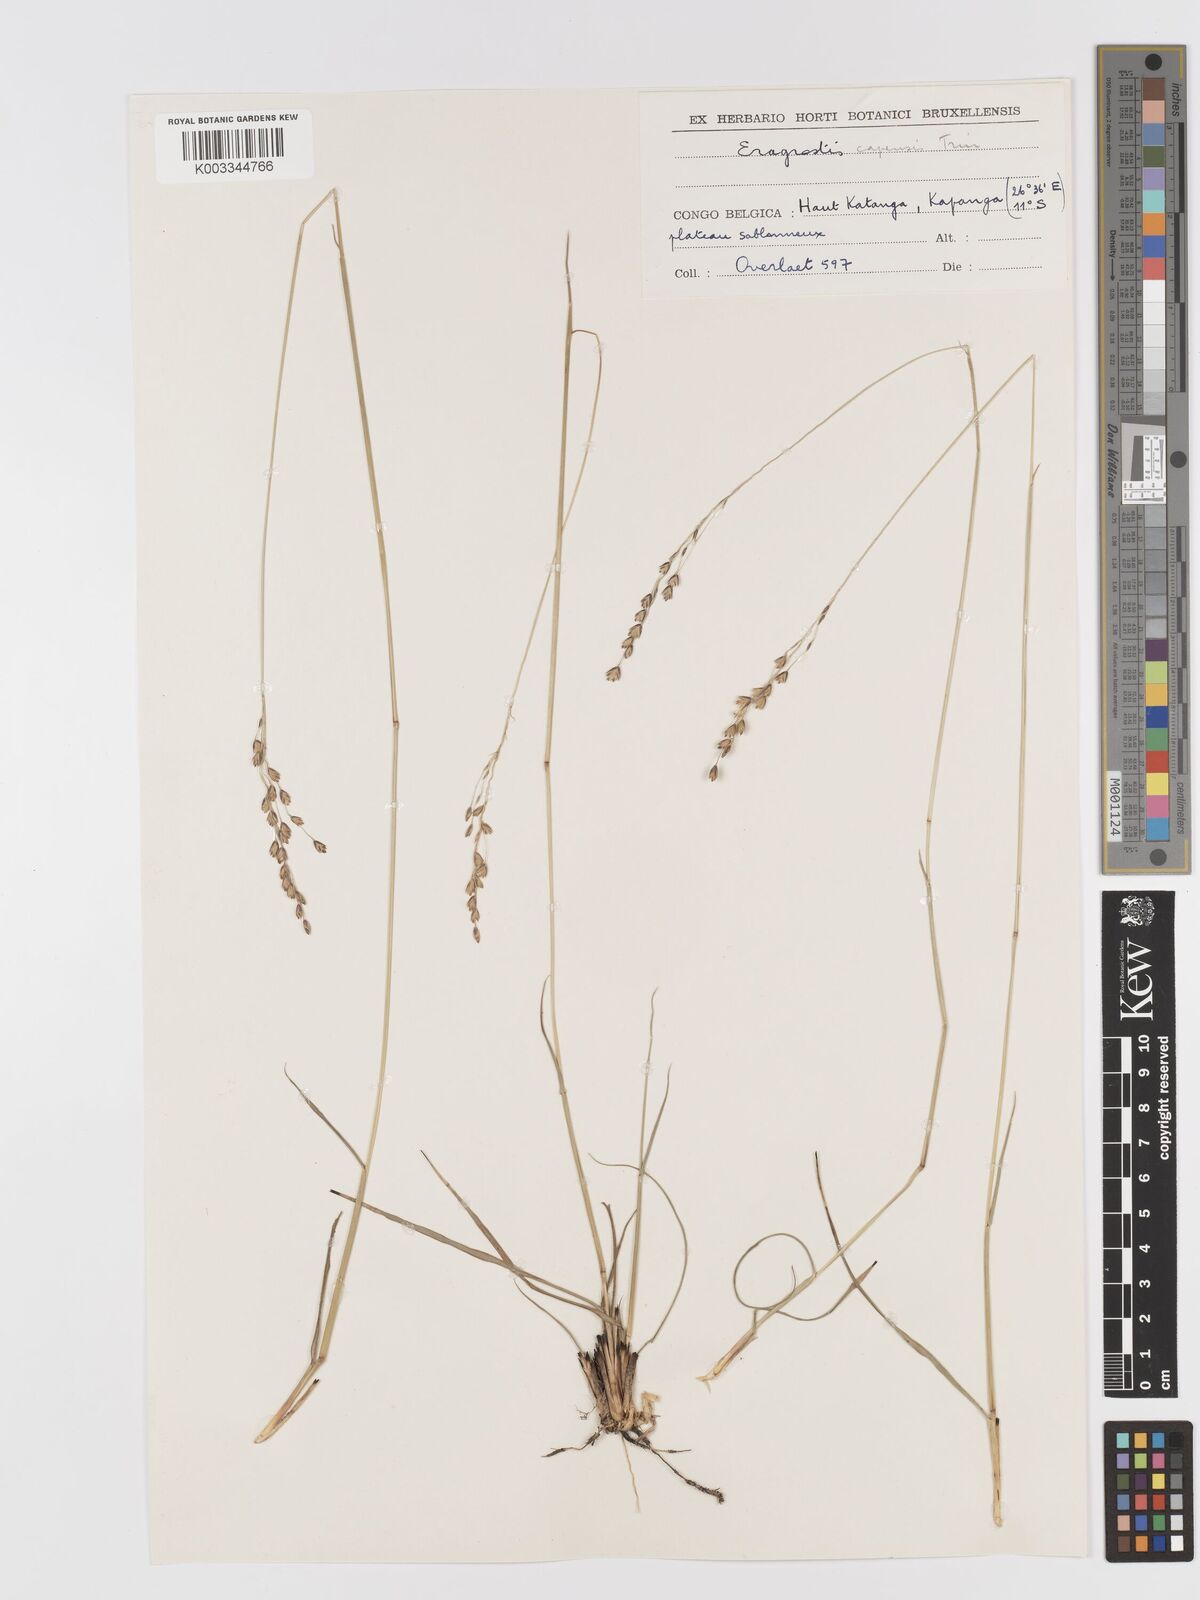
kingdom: Plantae
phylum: Tracheophyta
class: Liliopsida
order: Poales
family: Poaceae
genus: Eragrostis
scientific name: Eragrostis capensis
